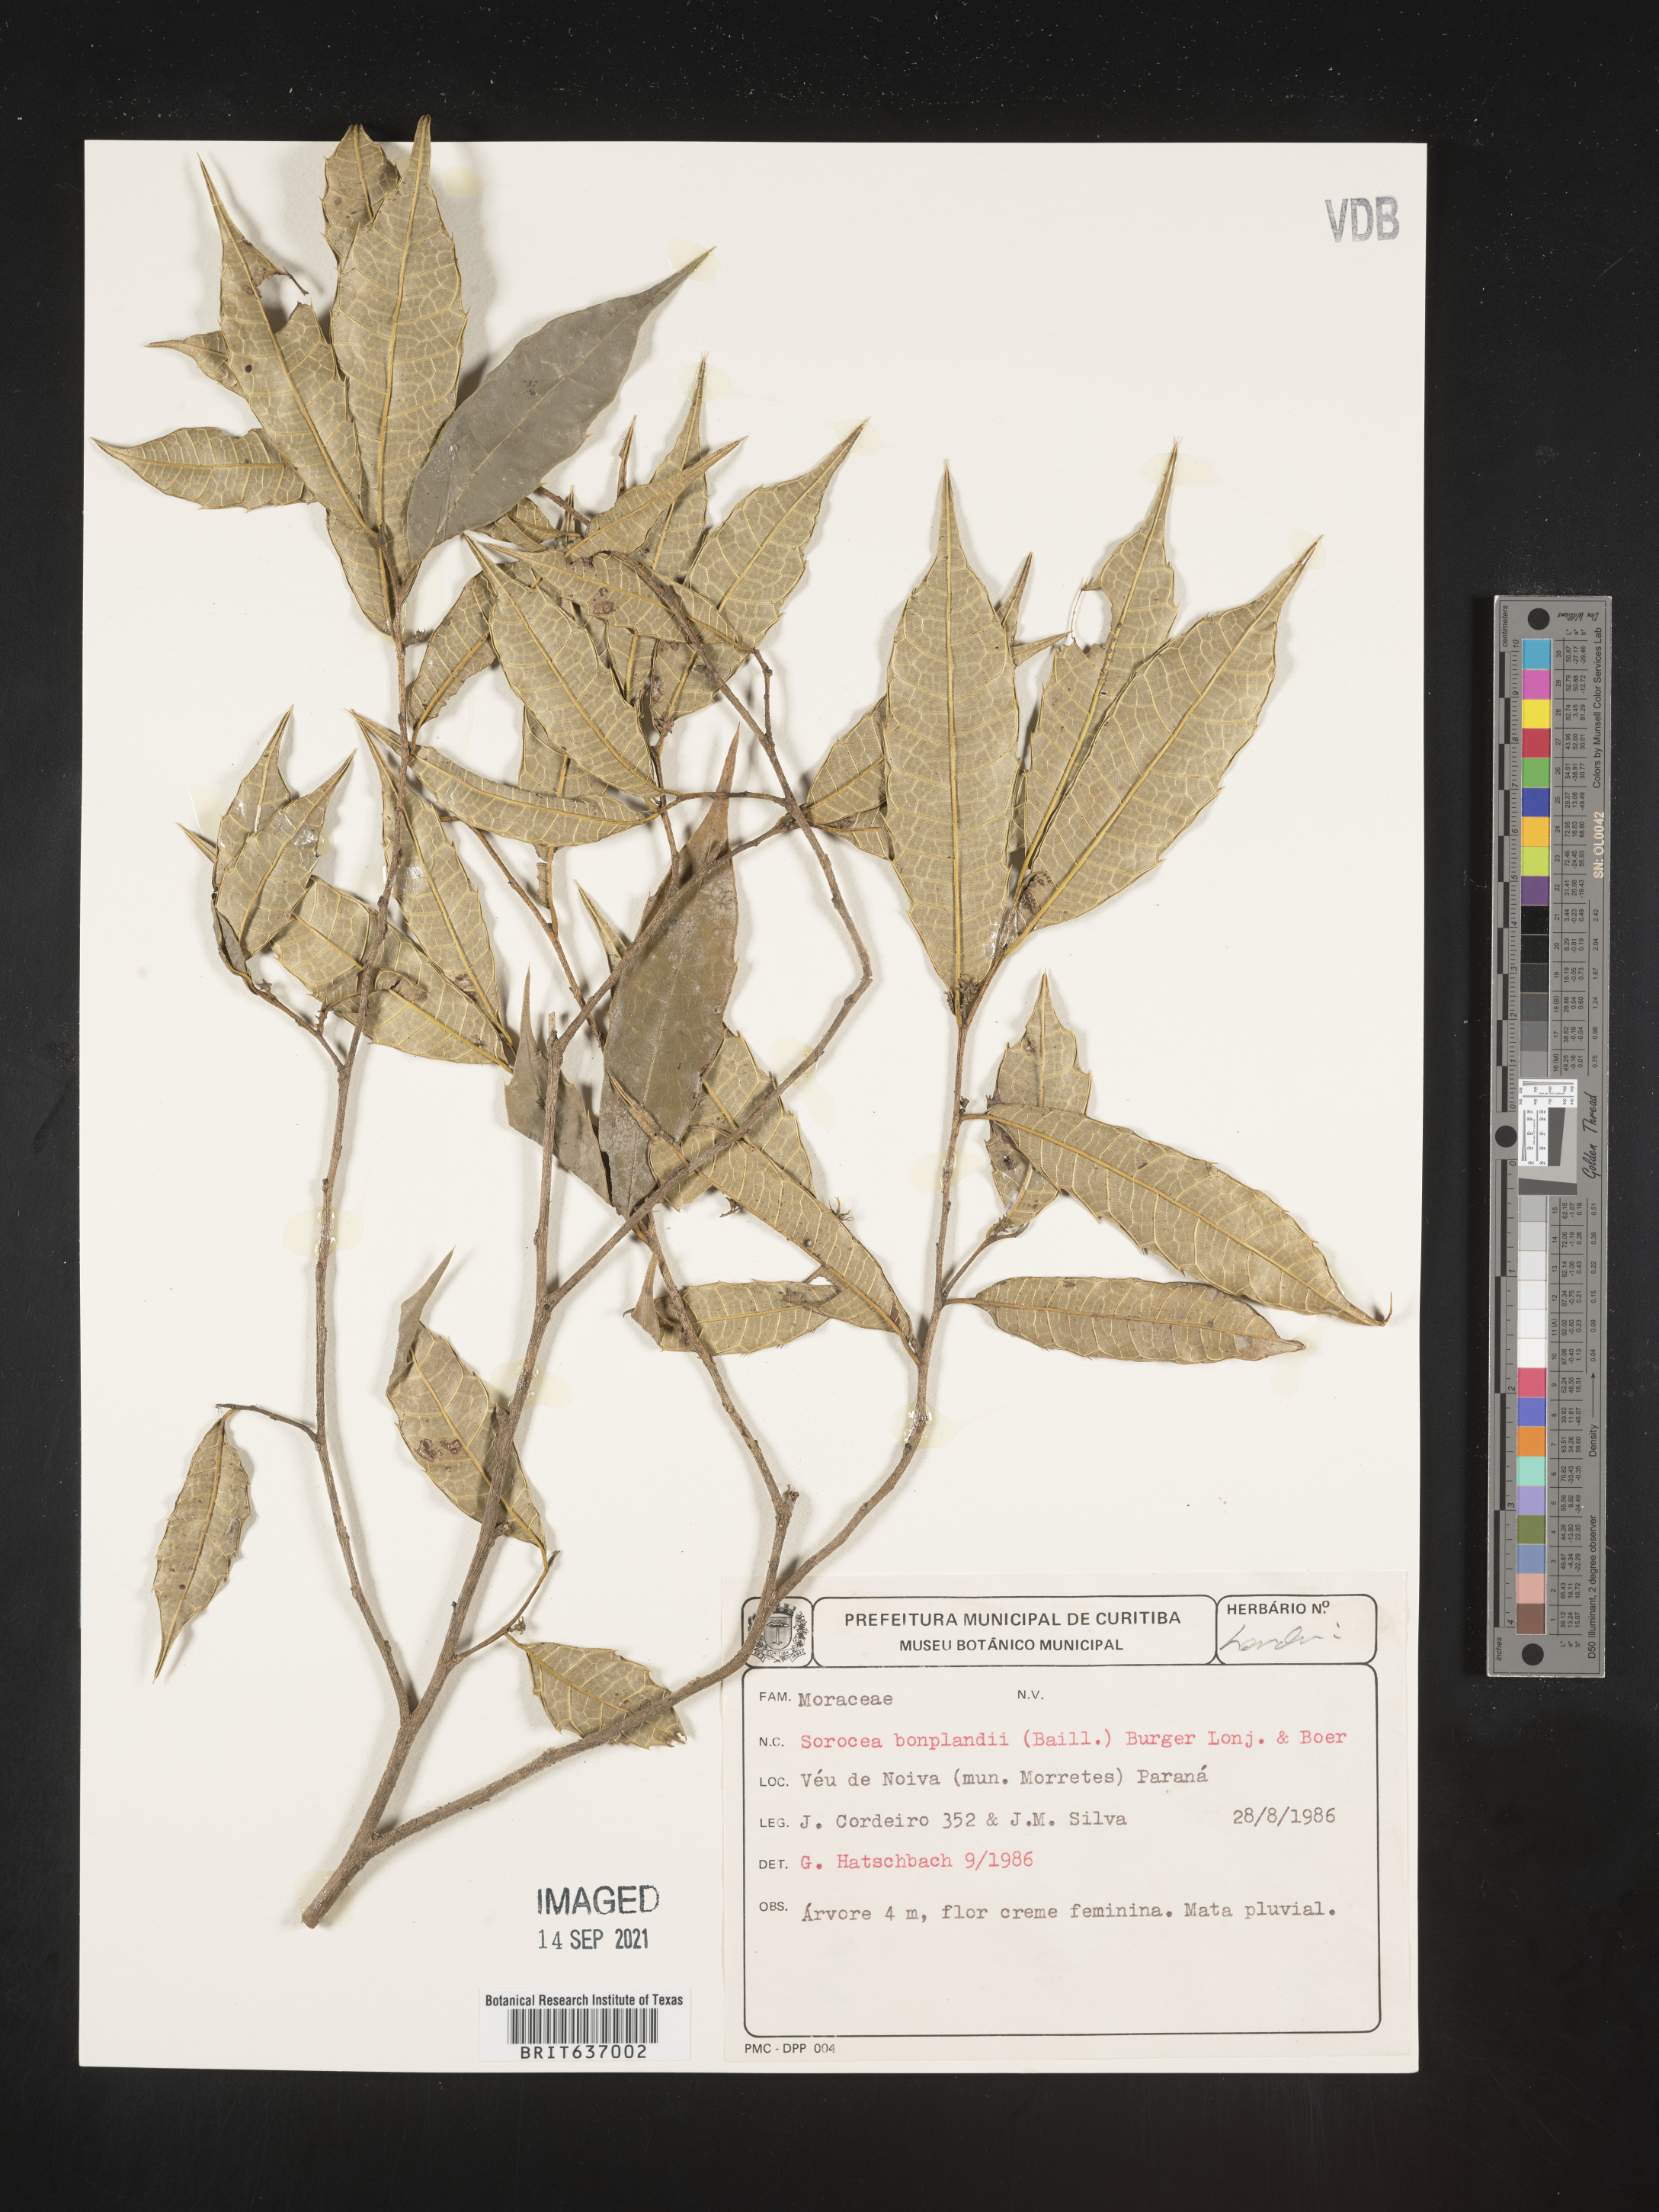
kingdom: Plantae
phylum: Tracheophyta
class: Magnoliopsida
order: Rosales
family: Moraceae
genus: Sorocea
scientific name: Sorocea
